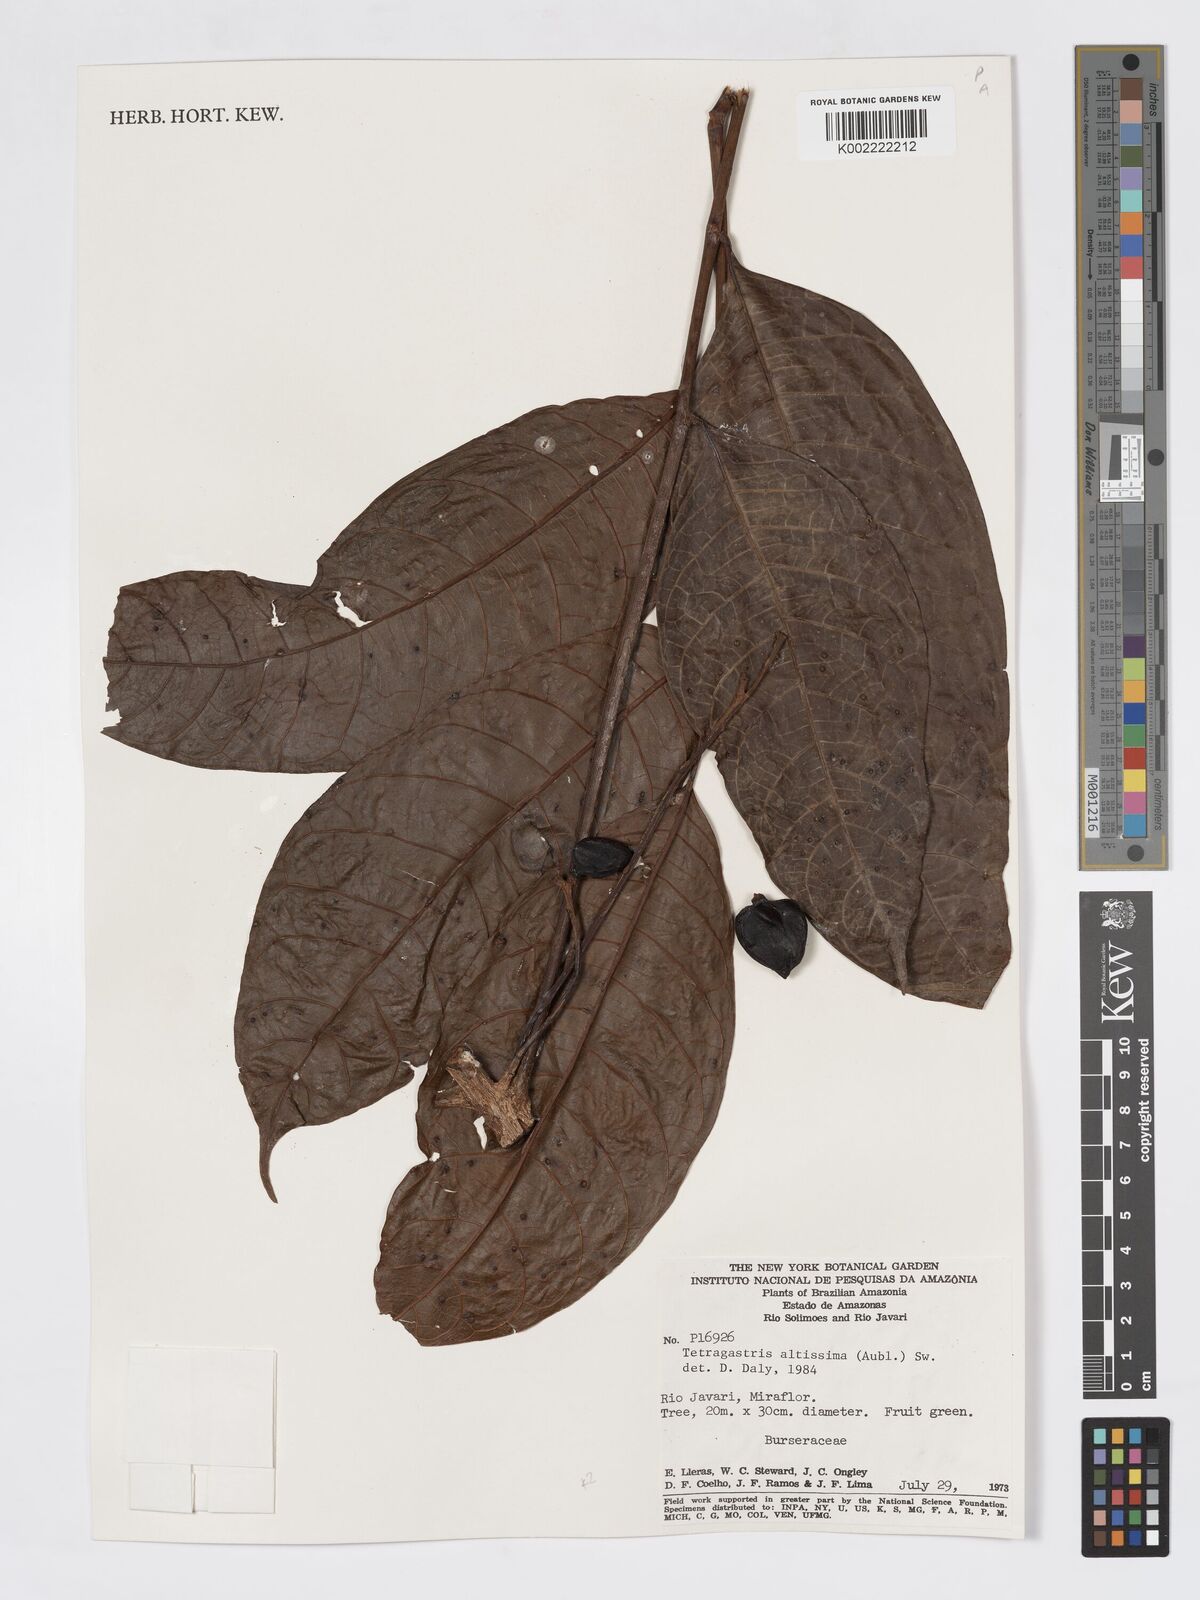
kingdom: Plantae
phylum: Tracheophyta
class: Magnoliopsida
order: Sapindales
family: Burseraceae
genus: Tetragastris
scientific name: Tetragastris altissima
